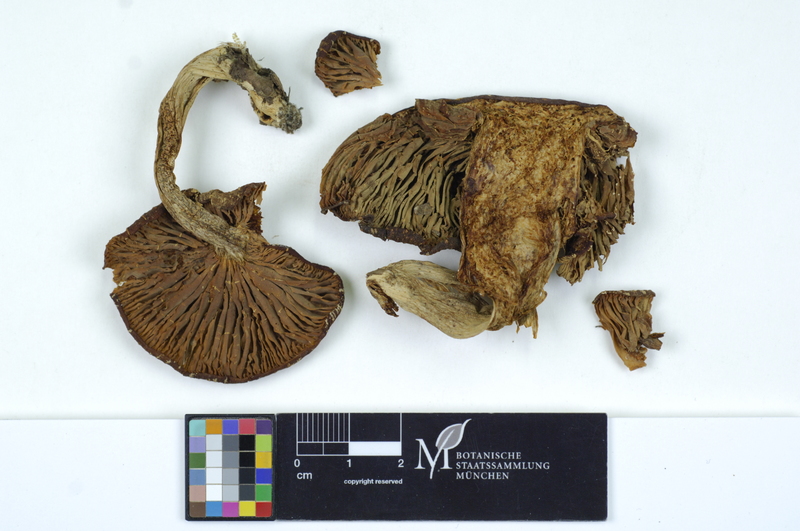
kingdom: Fungi
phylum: Basidiomycota
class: Agaricomycetes
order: Agaricales
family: Entolomataceae
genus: Entoloma
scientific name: Entoloma lividoalbum
